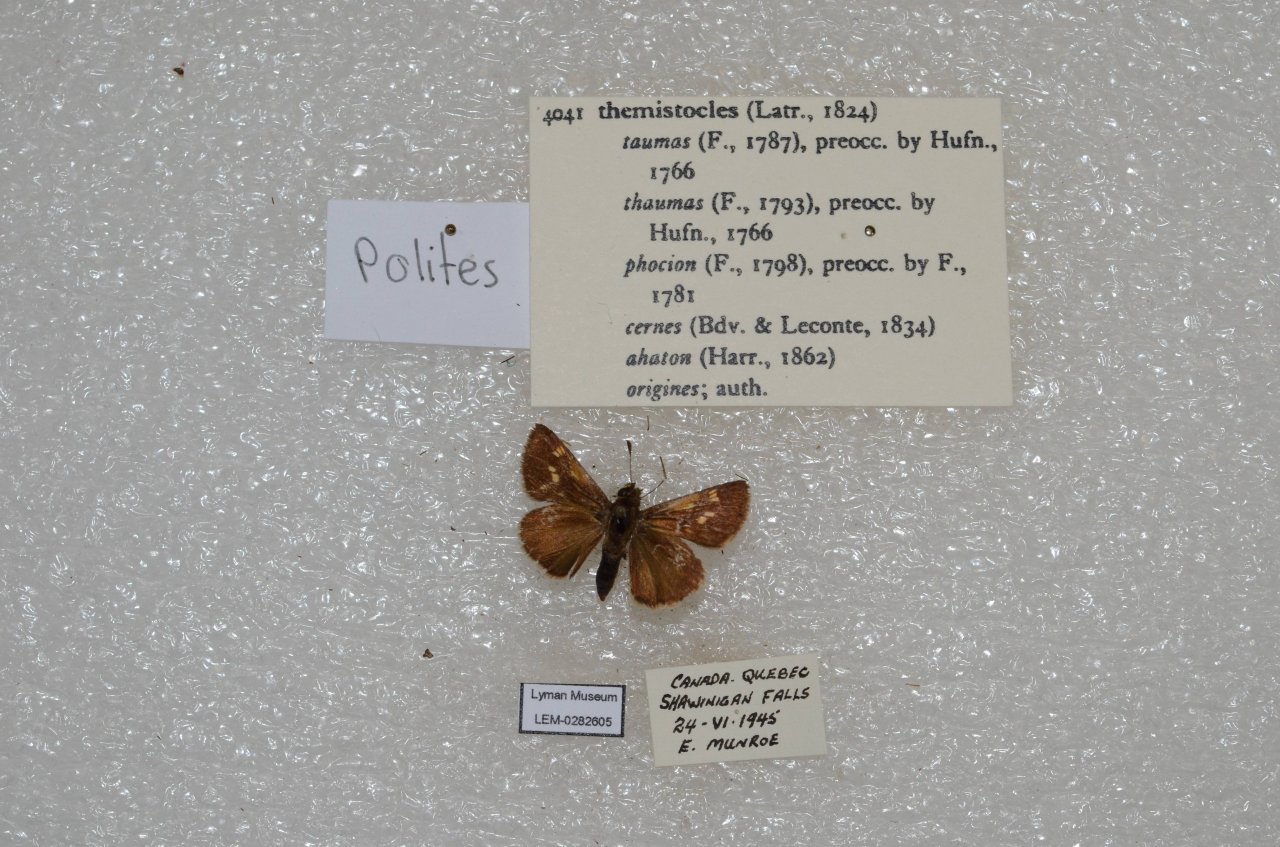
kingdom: Animalia
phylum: Arthropoda
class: Insecta
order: Lepidoptera
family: Hesperiidae
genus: Polites
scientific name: Polites themistocles
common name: Tawny-edged Skipper
